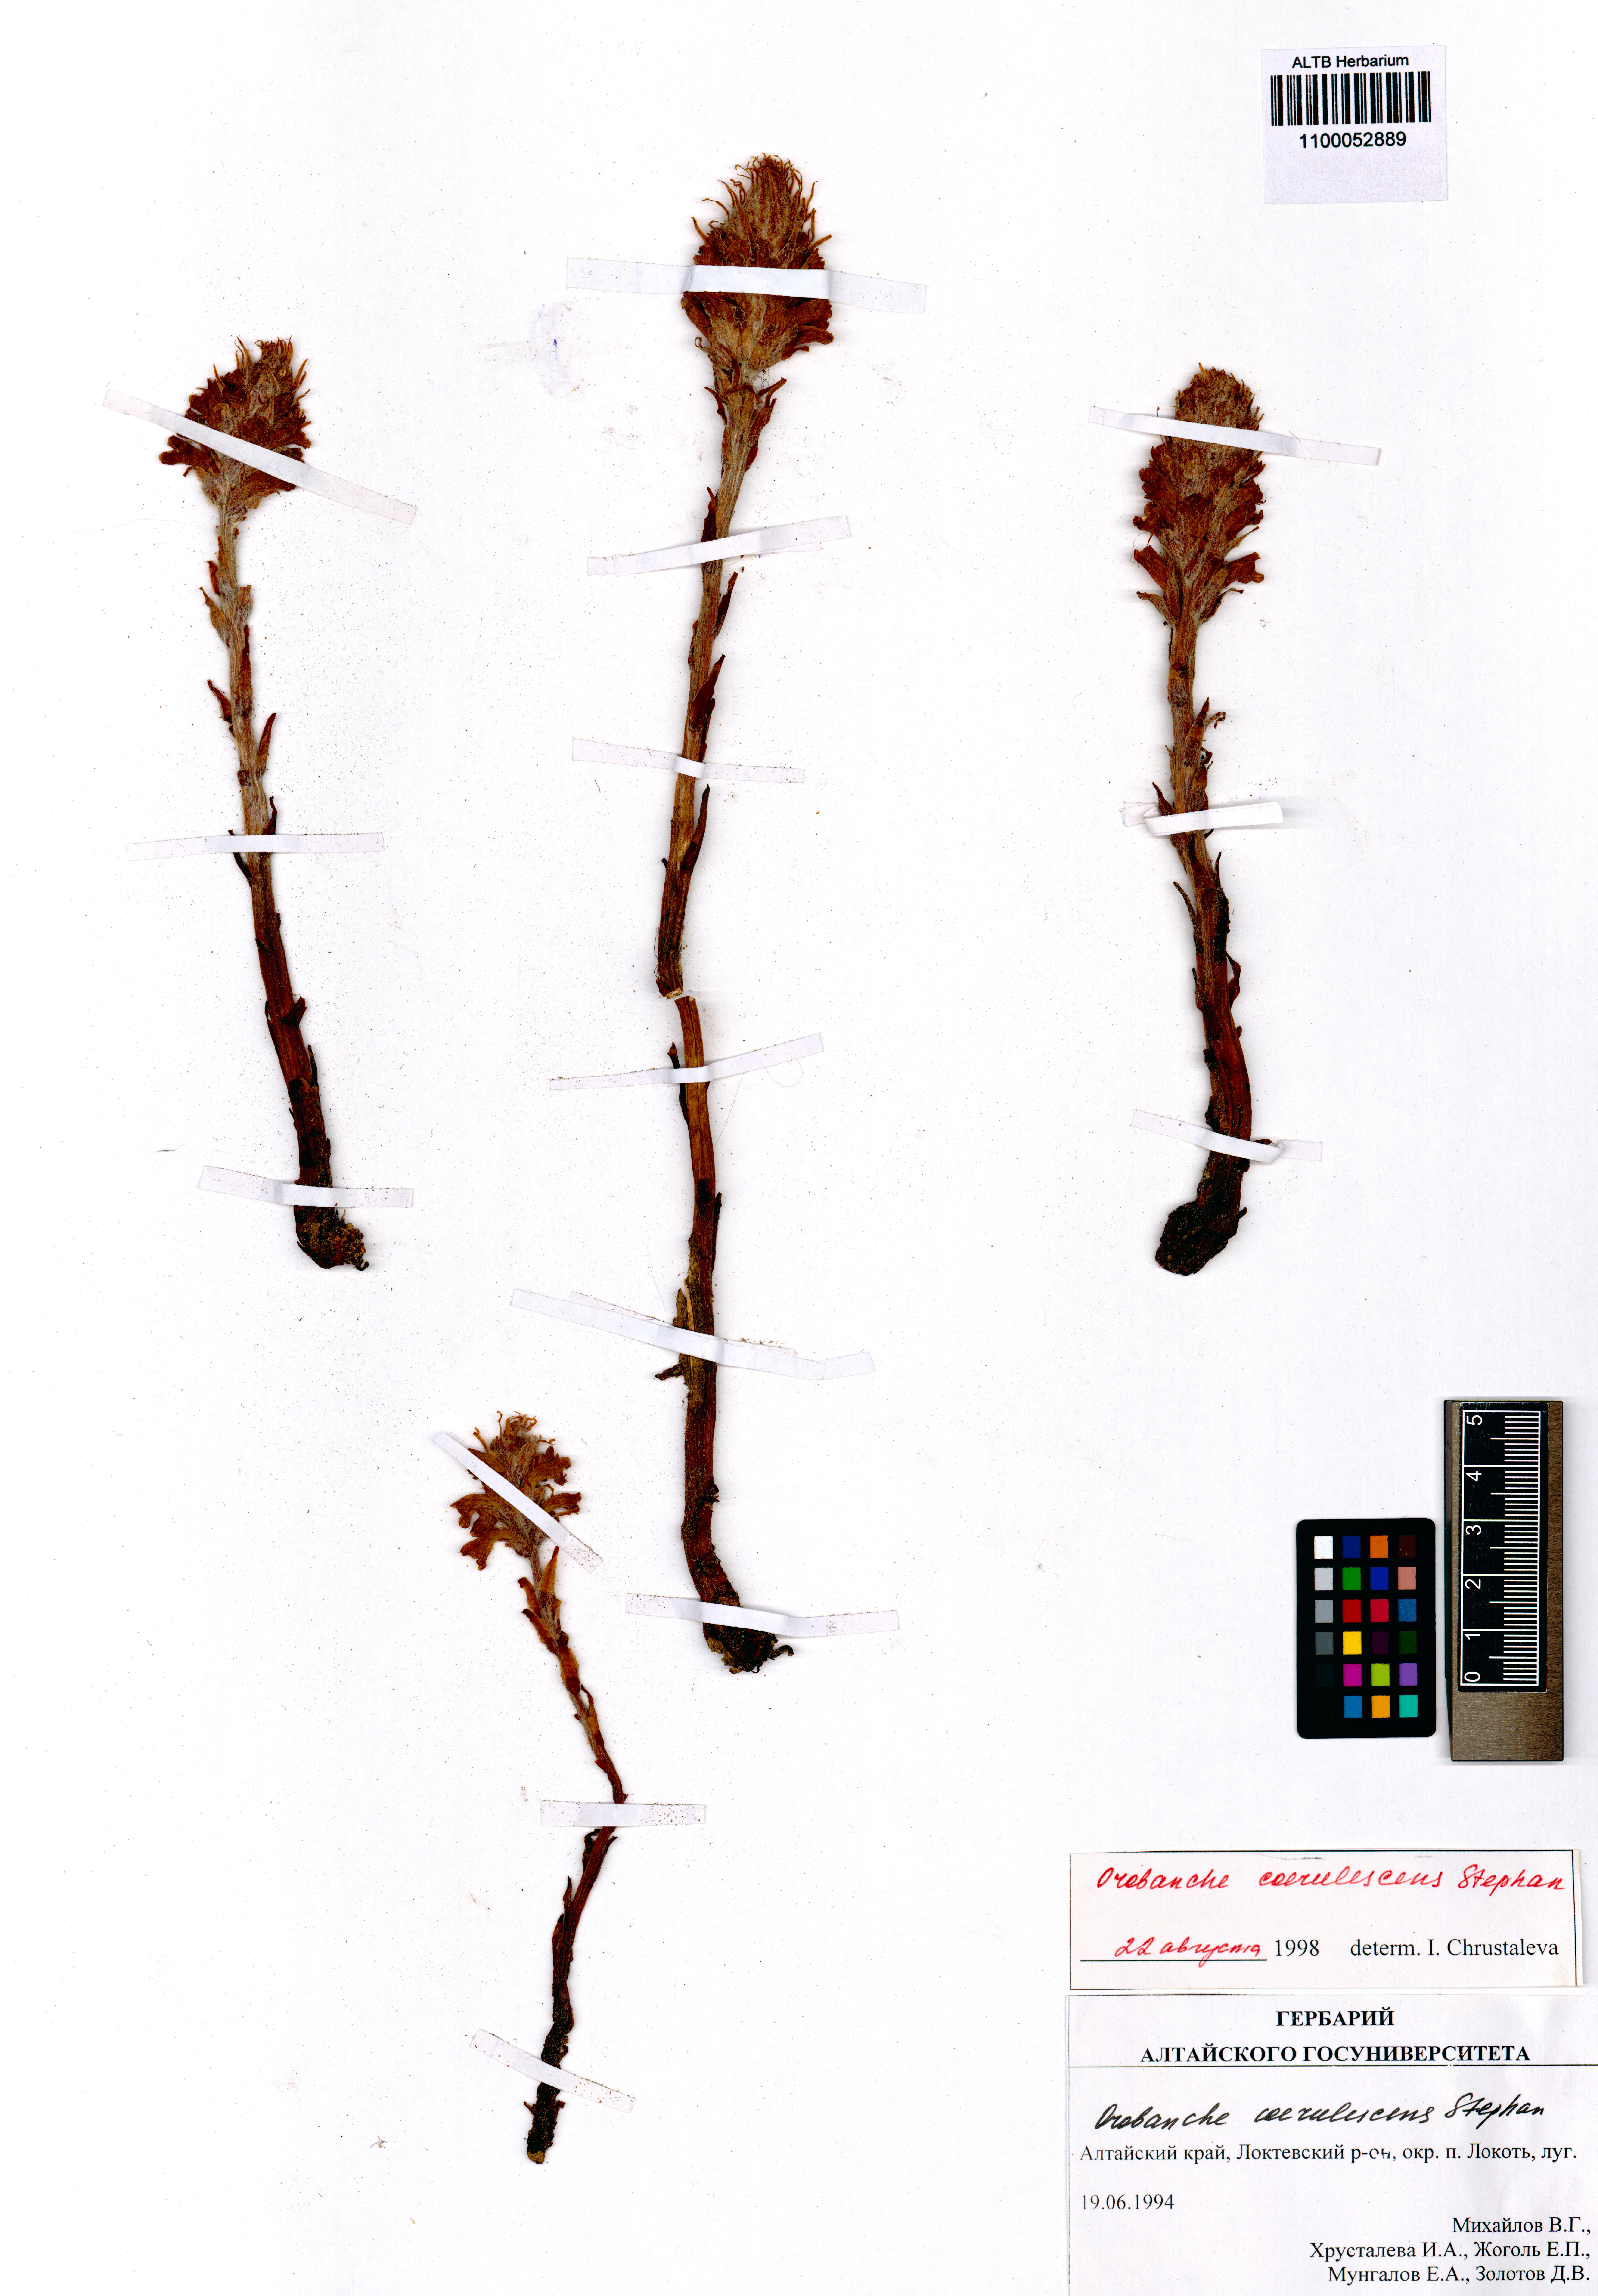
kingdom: Plantae
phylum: Tracheophyta
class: Magnoliopsida
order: Lamiales
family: Orobanchaceae
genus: Orobanche
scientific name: Orobanche coerulescens
